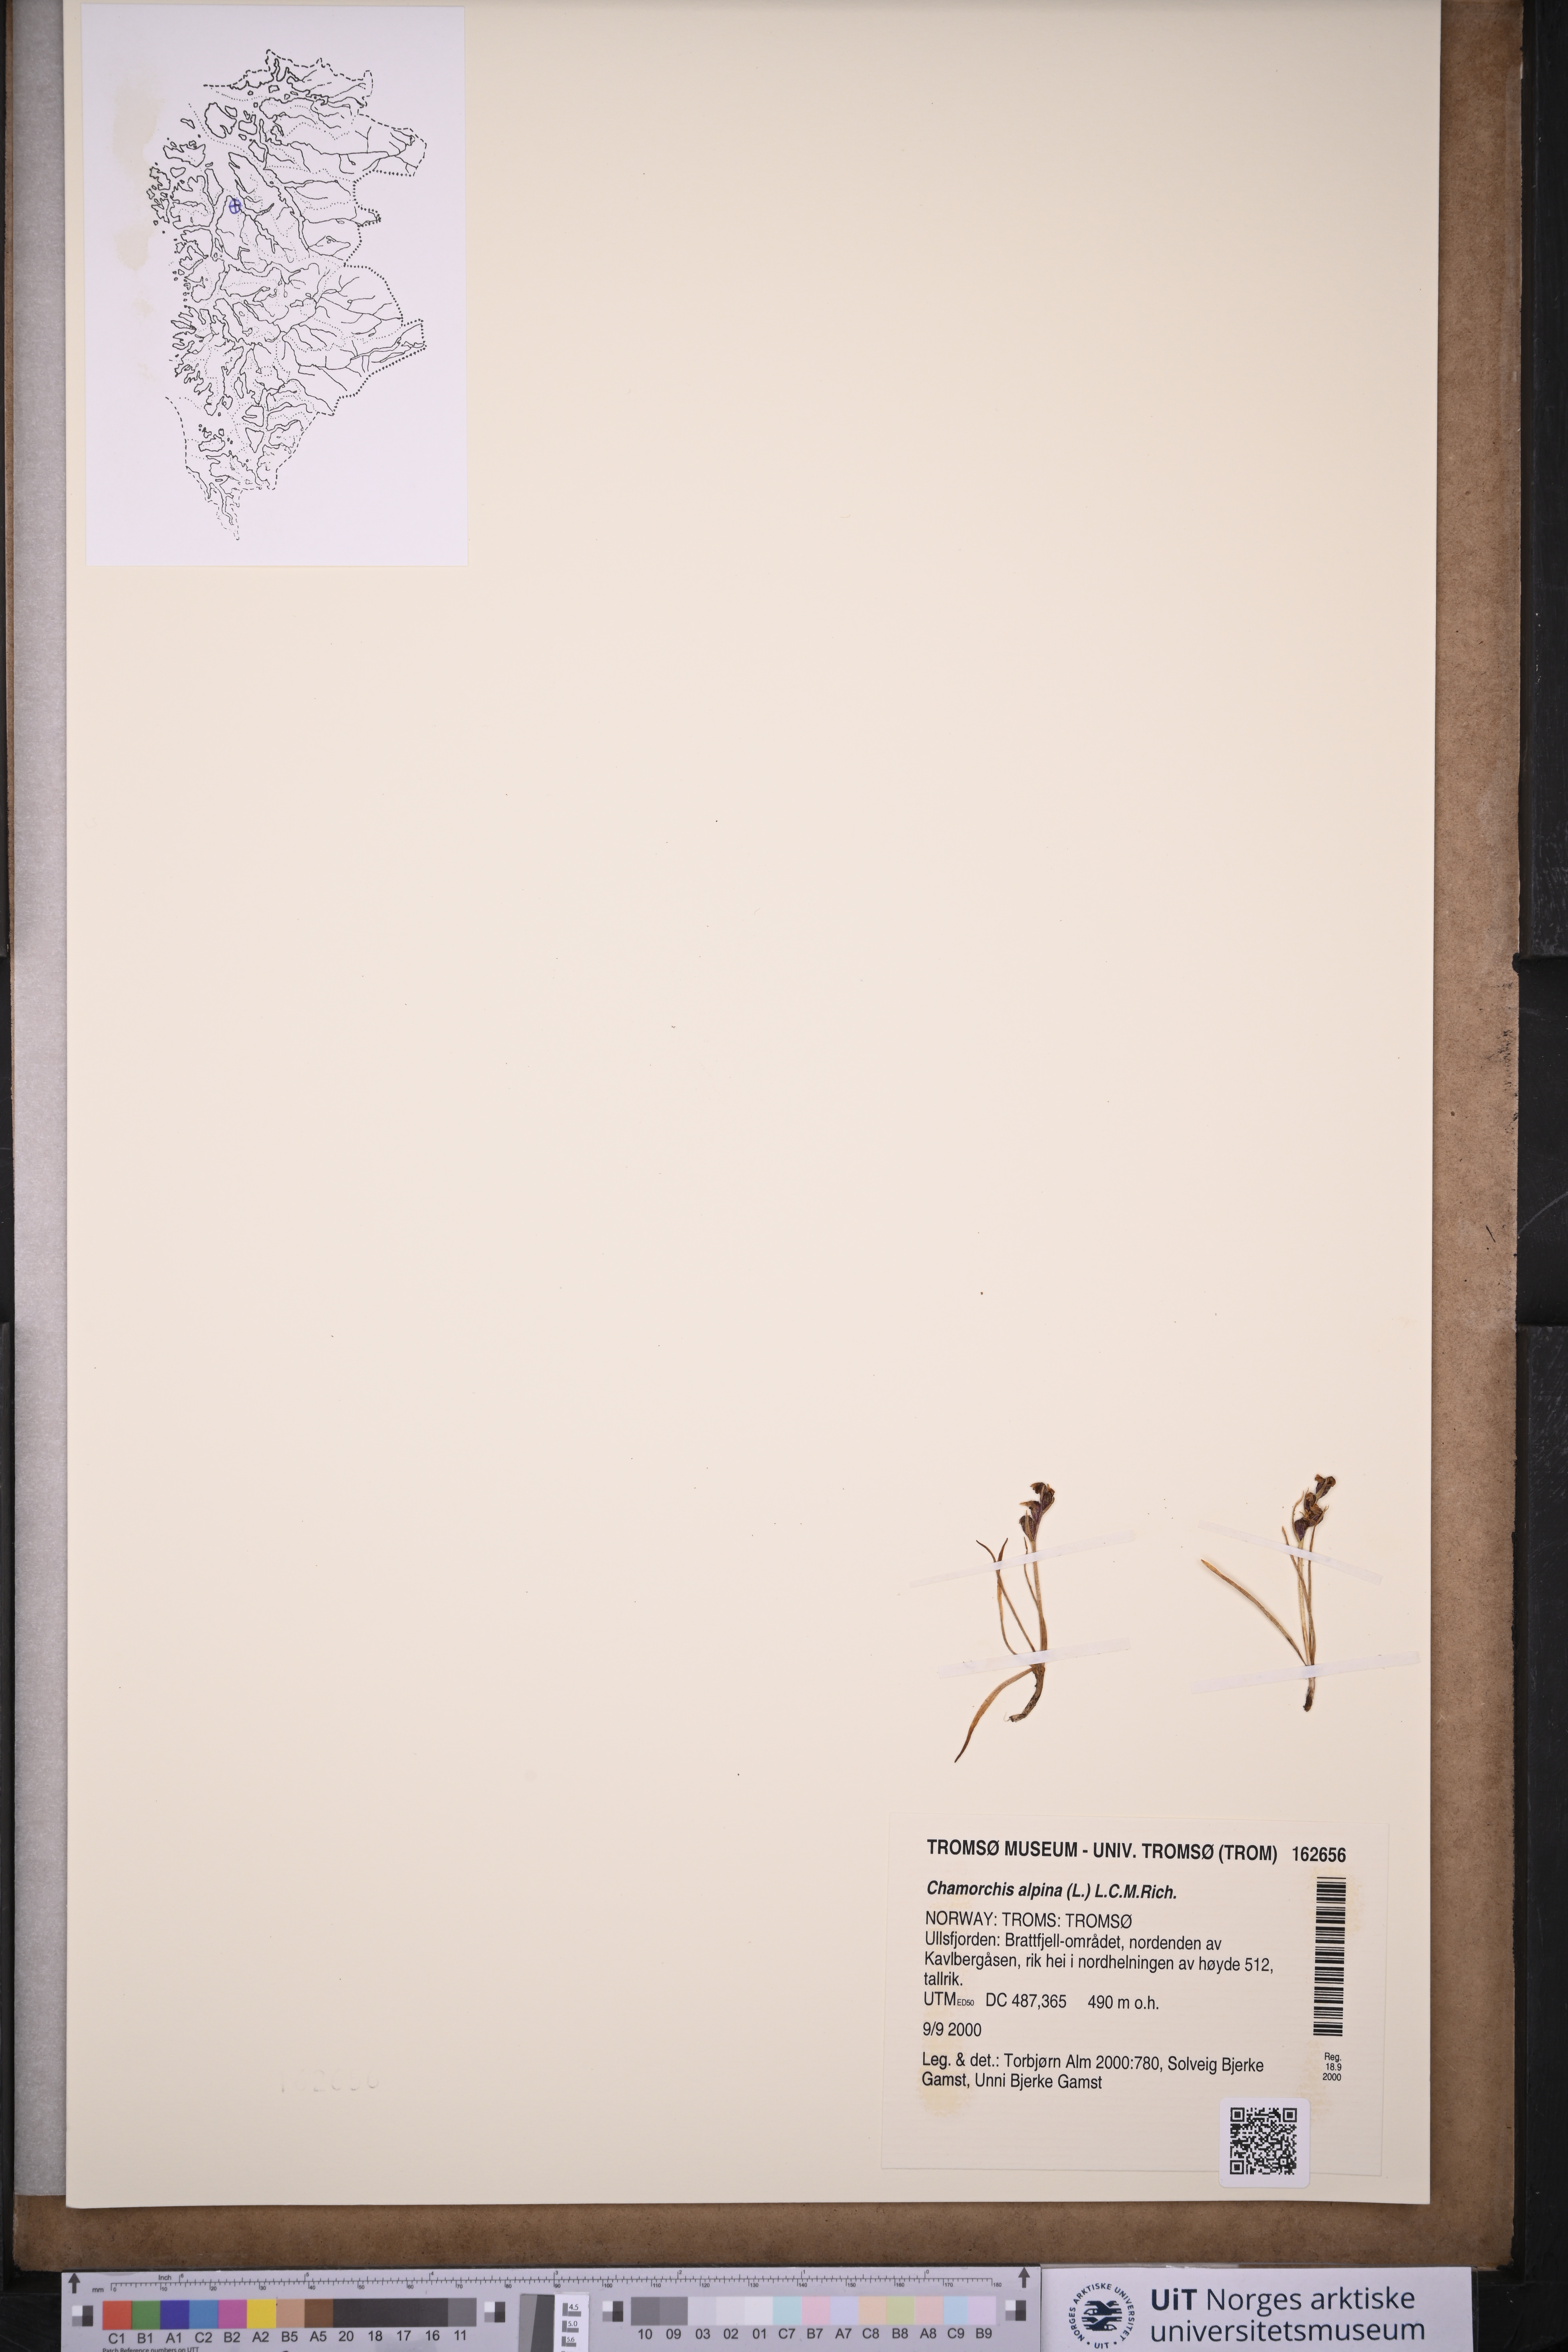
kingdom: Plantae
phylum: Tracheophyta
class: Liliopsida
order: Asparagales
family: Orchidaceae
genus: Chamorchis
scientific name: Chamorchis alpina
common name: Alpine chamorchis
